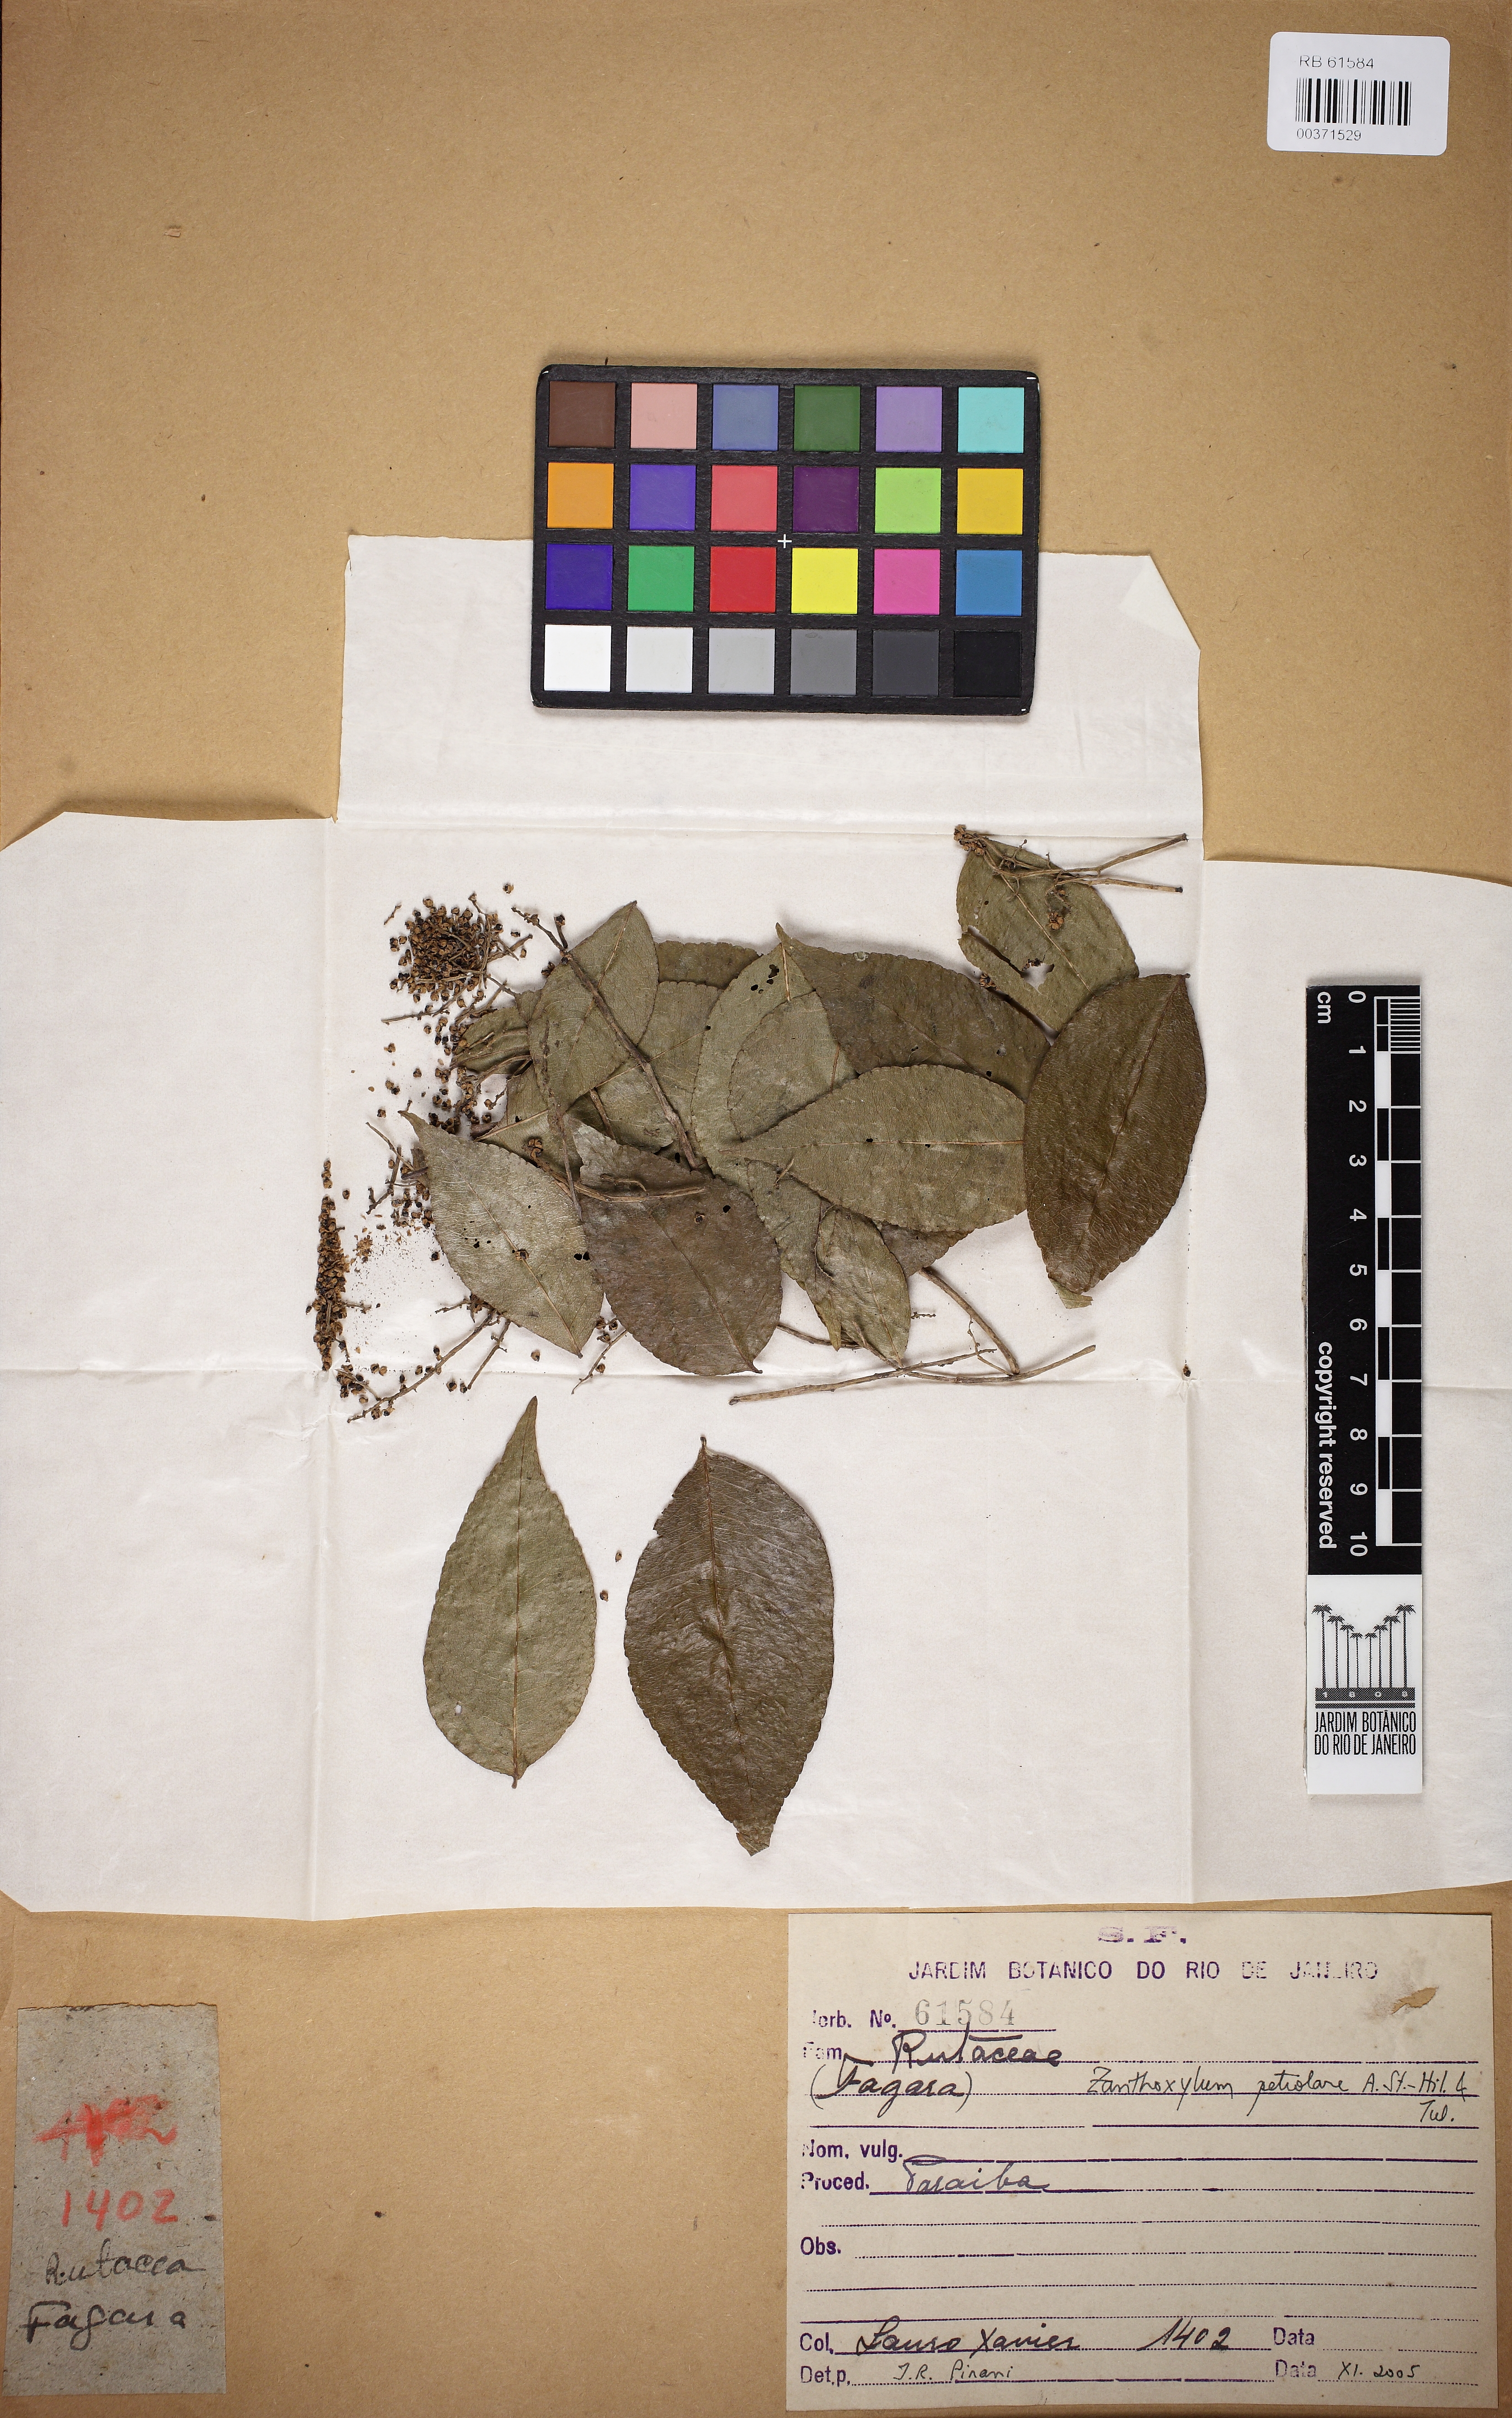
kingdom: Plantae
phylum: Tracheophyta
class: Magnoliopsida
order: Sapindales
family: Rutaceae
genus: Zanthoxylum
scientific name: Zanthoxylum petiolare
